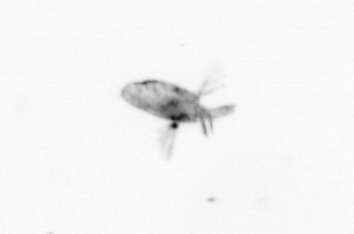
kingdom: Animalia
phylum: Arthropoda
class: Copepoda
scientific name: Copepoda
